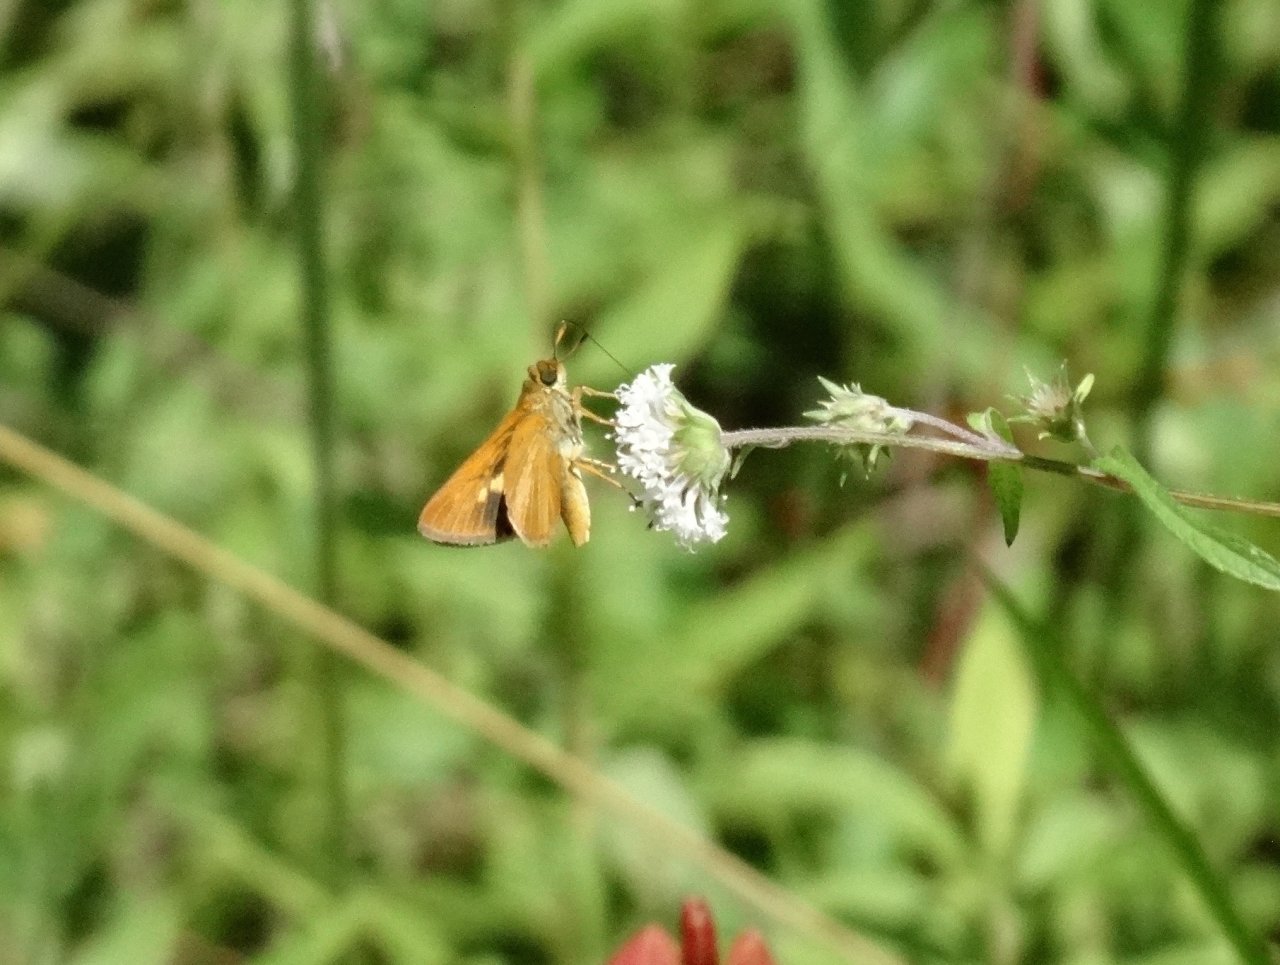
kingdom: Animalia
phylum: Arthropoda
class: Insecta
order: Lepidoptera
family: Hesperiidae
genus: Euphyes
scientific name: Euphyes dion
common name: Dion Skipper
